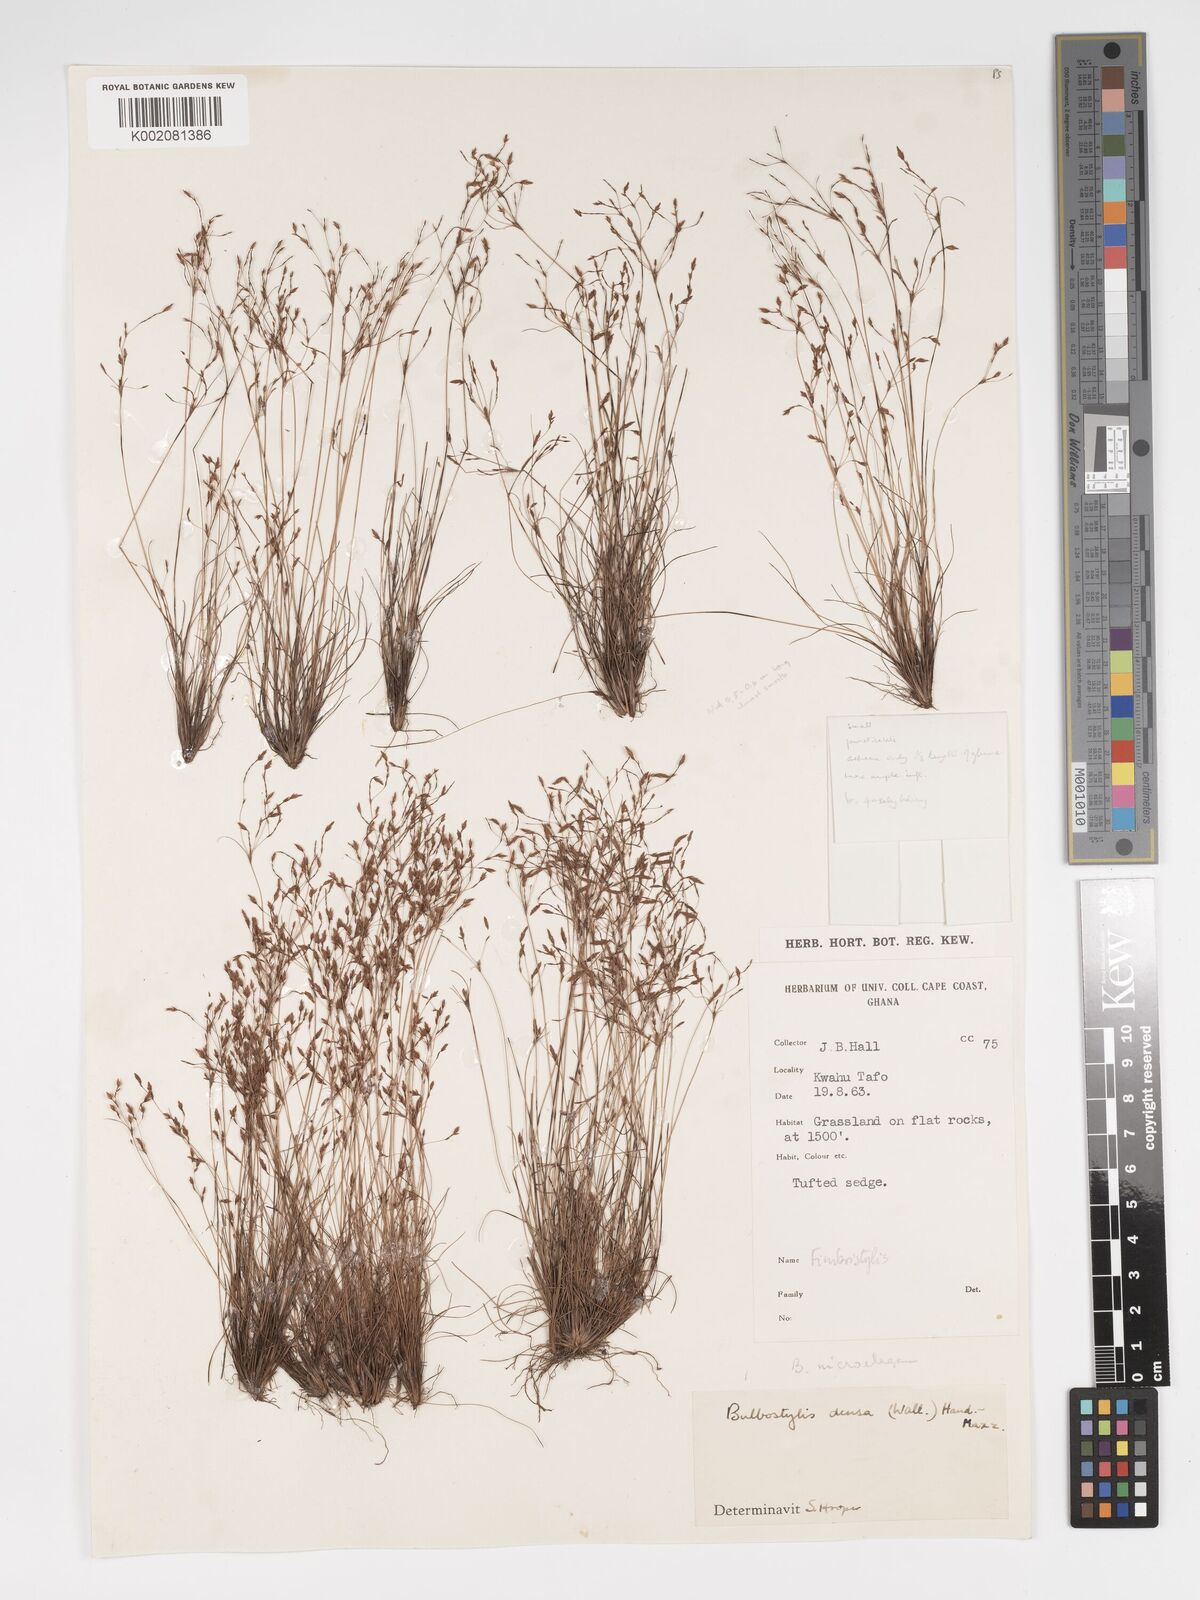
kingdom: Plantae
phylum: Tracheophyta
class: Liliopsida
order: Poales
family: Cyperaceae
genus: Bulbostylis
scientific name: Bulbostylis
